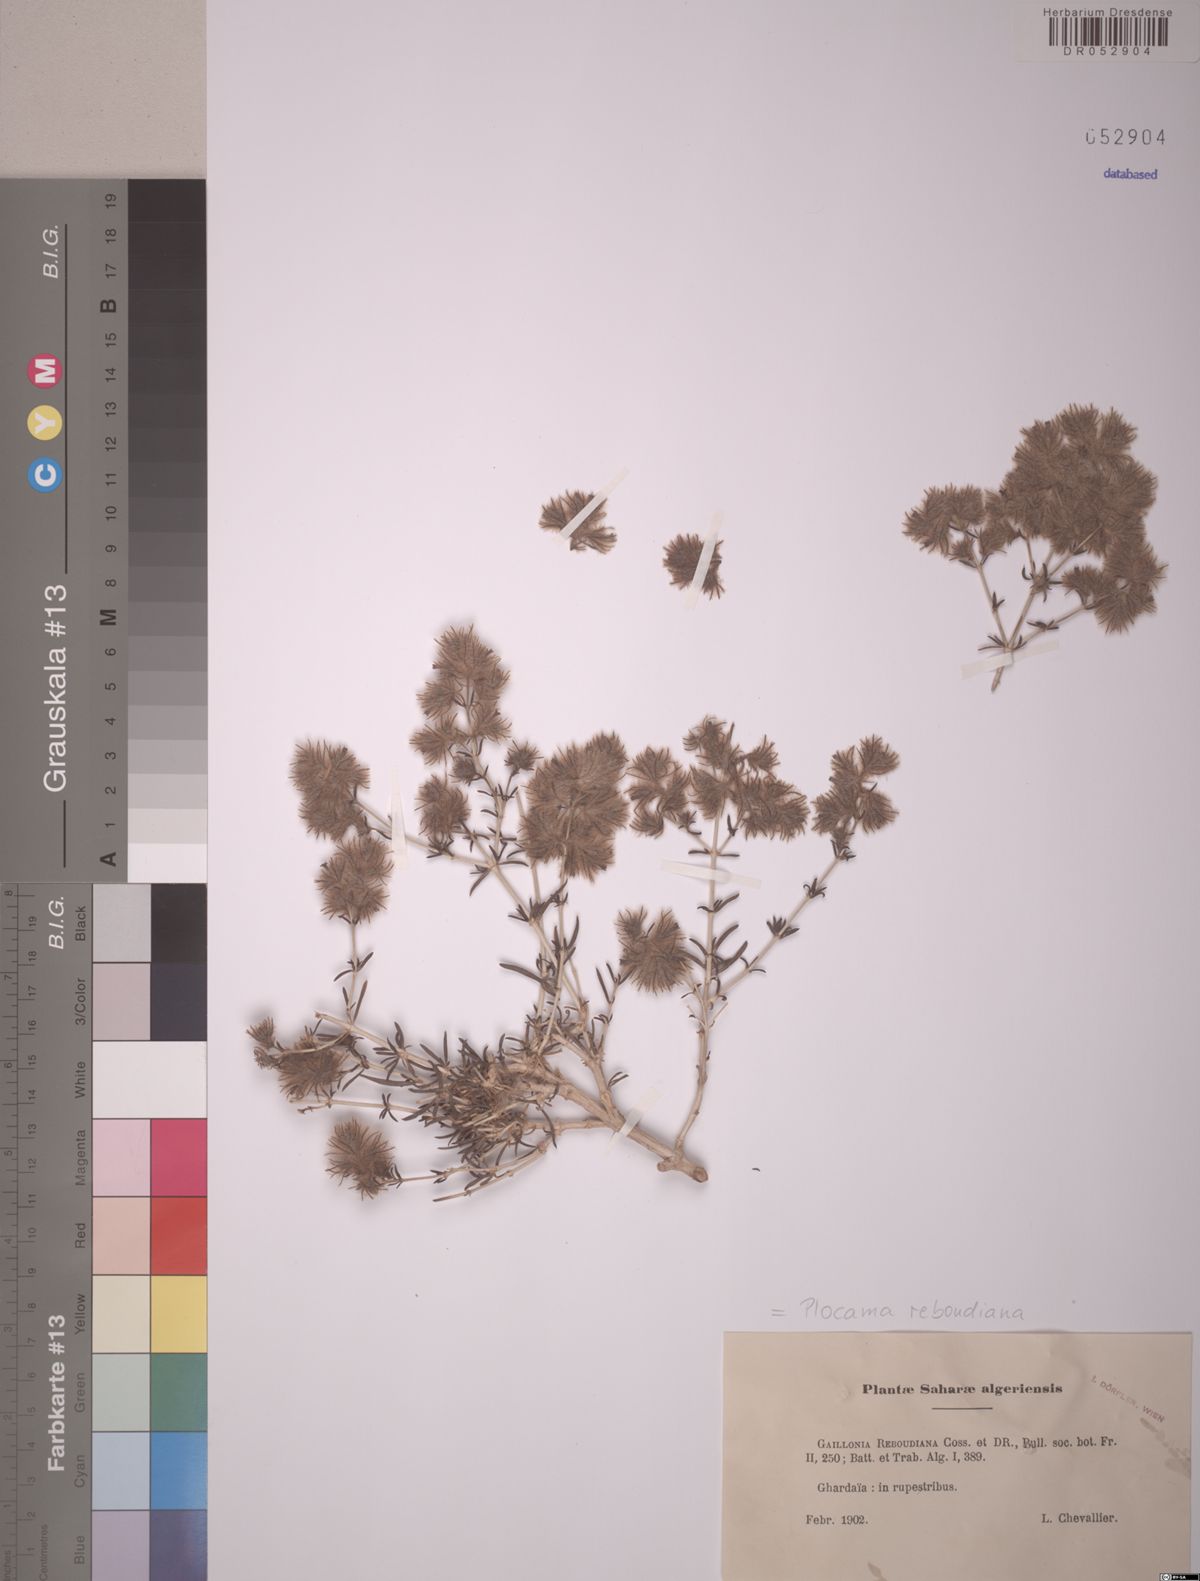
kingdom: Plantae
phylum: Tracheophyta
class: Magnoliopsida
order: Gentianales
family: Rubiaceae
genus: Plocama
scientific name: Plocama reboudiana
